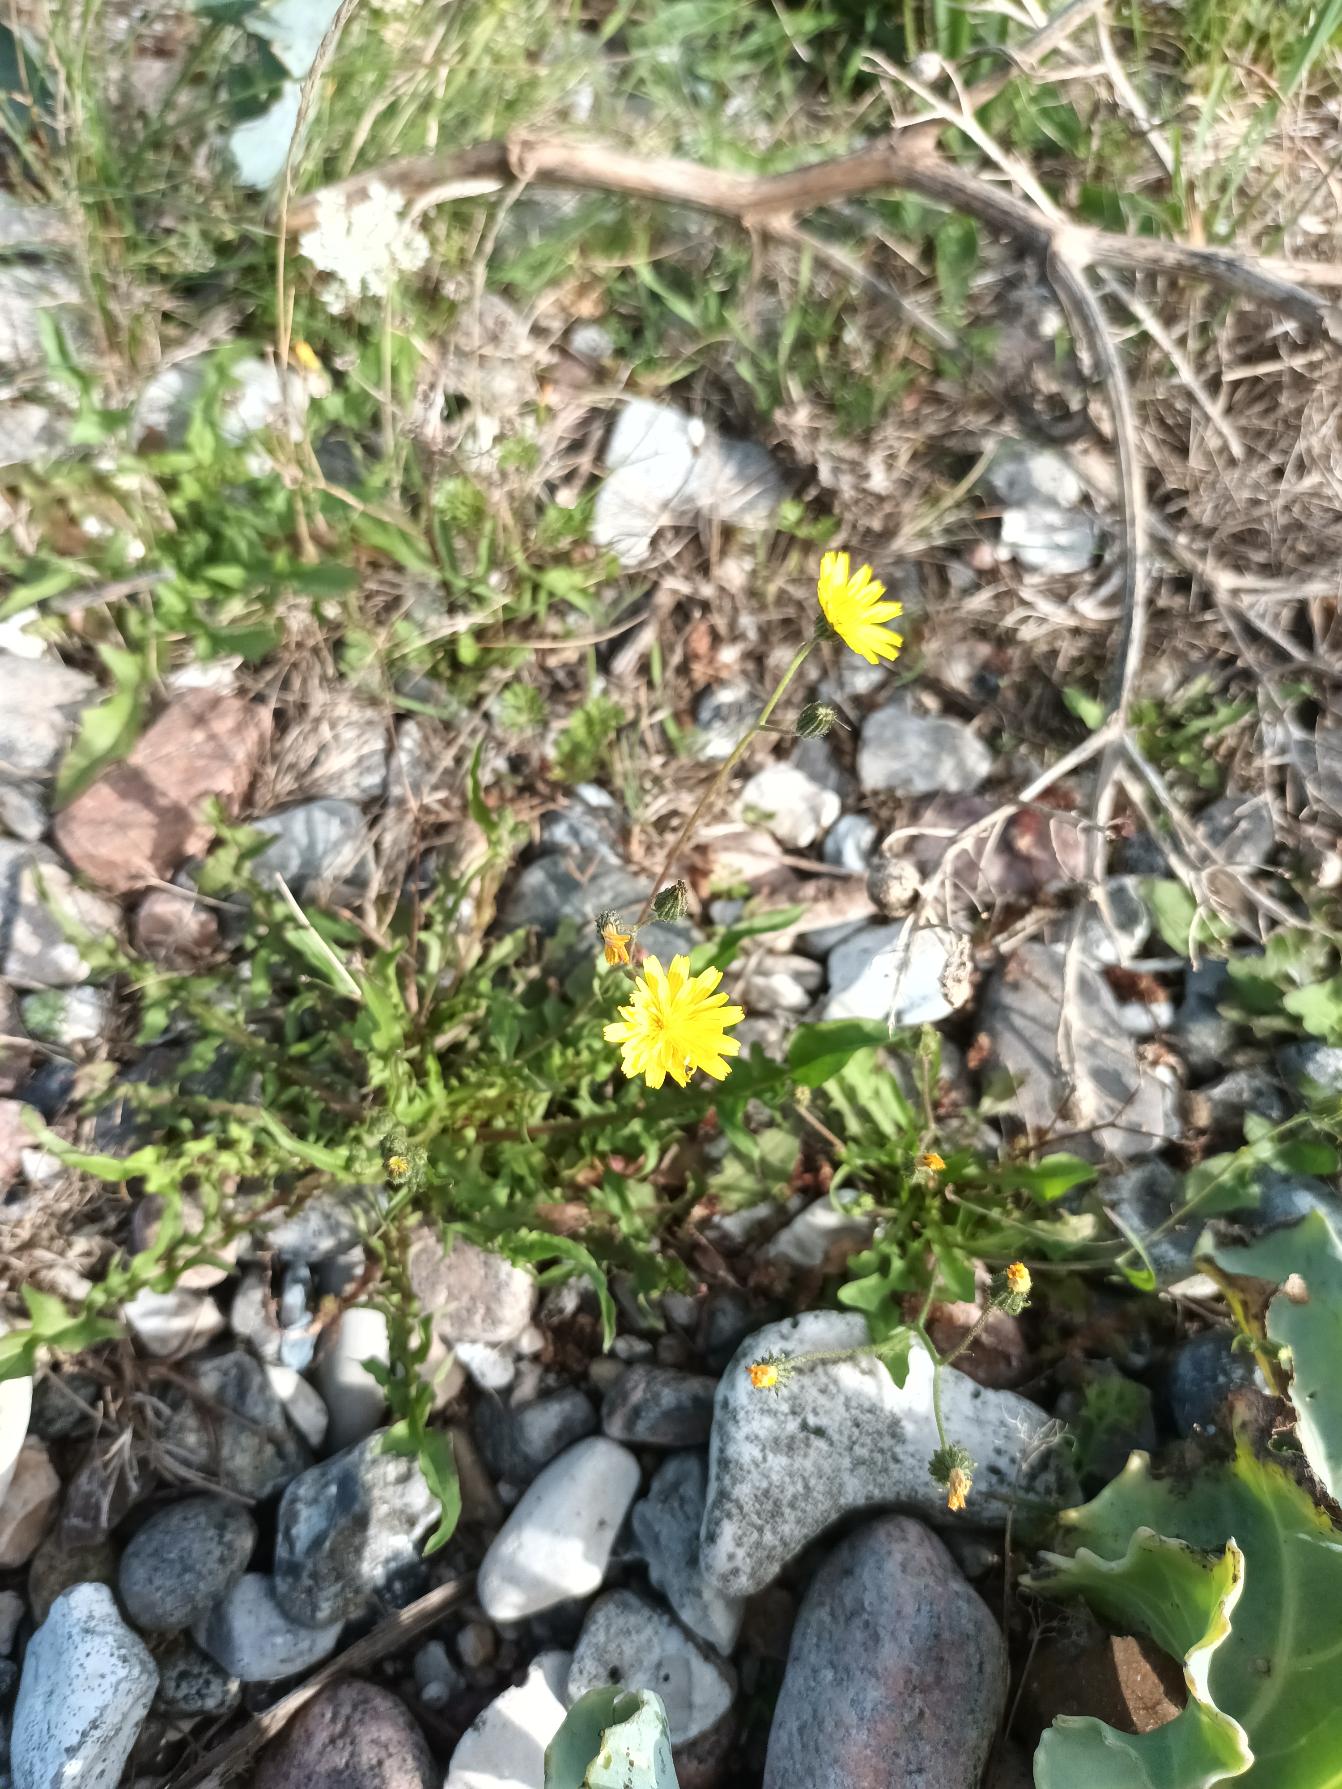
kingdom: Plantae
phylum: Tracheophyta
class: Magnoliopsida
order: Asterales
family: Asteraceae
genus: Crepis
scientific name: Crepis capillaris
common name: Grøn høgeskæg
